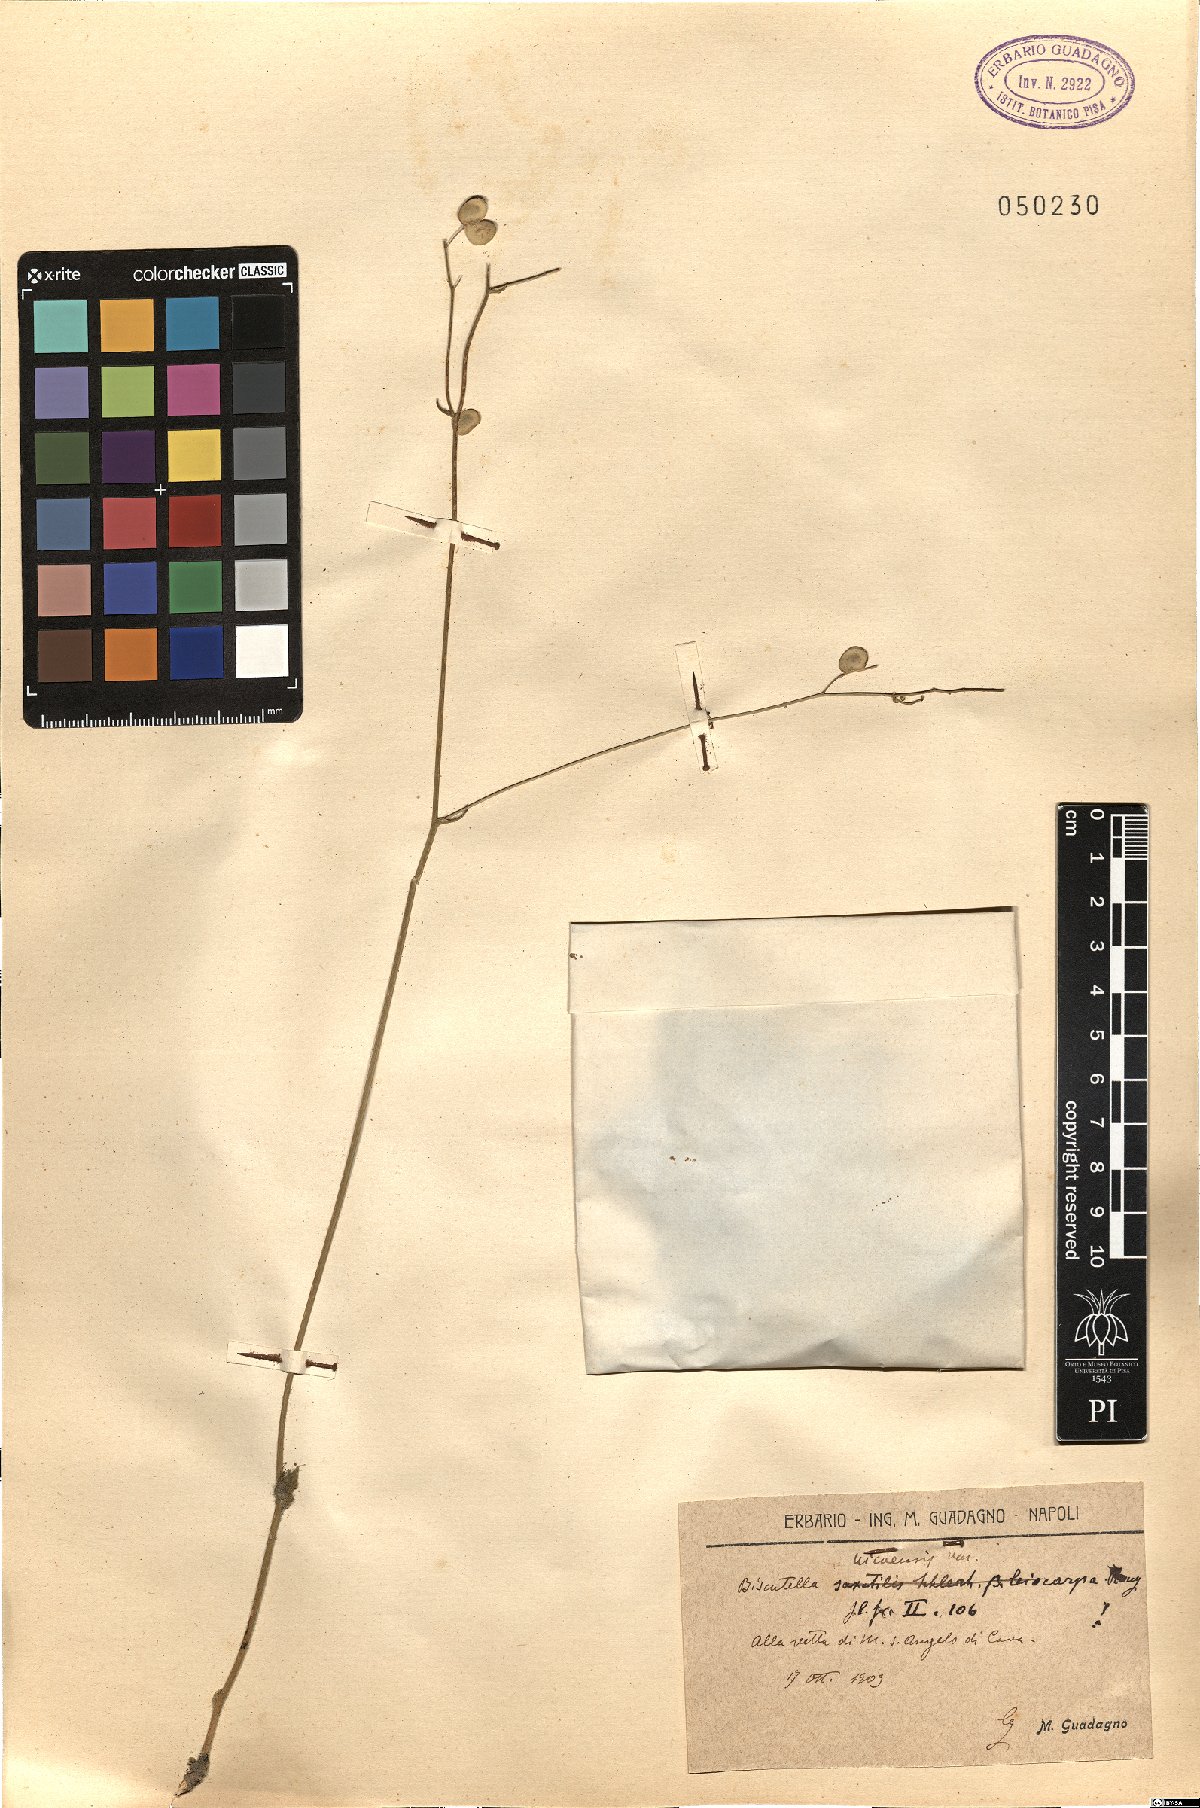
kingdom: Plantae
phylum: Tracheophyta
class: Magnoliopsida
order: Brassicales
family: Brassicaceae
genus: Biscutella
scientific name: Biscutella ambigua
